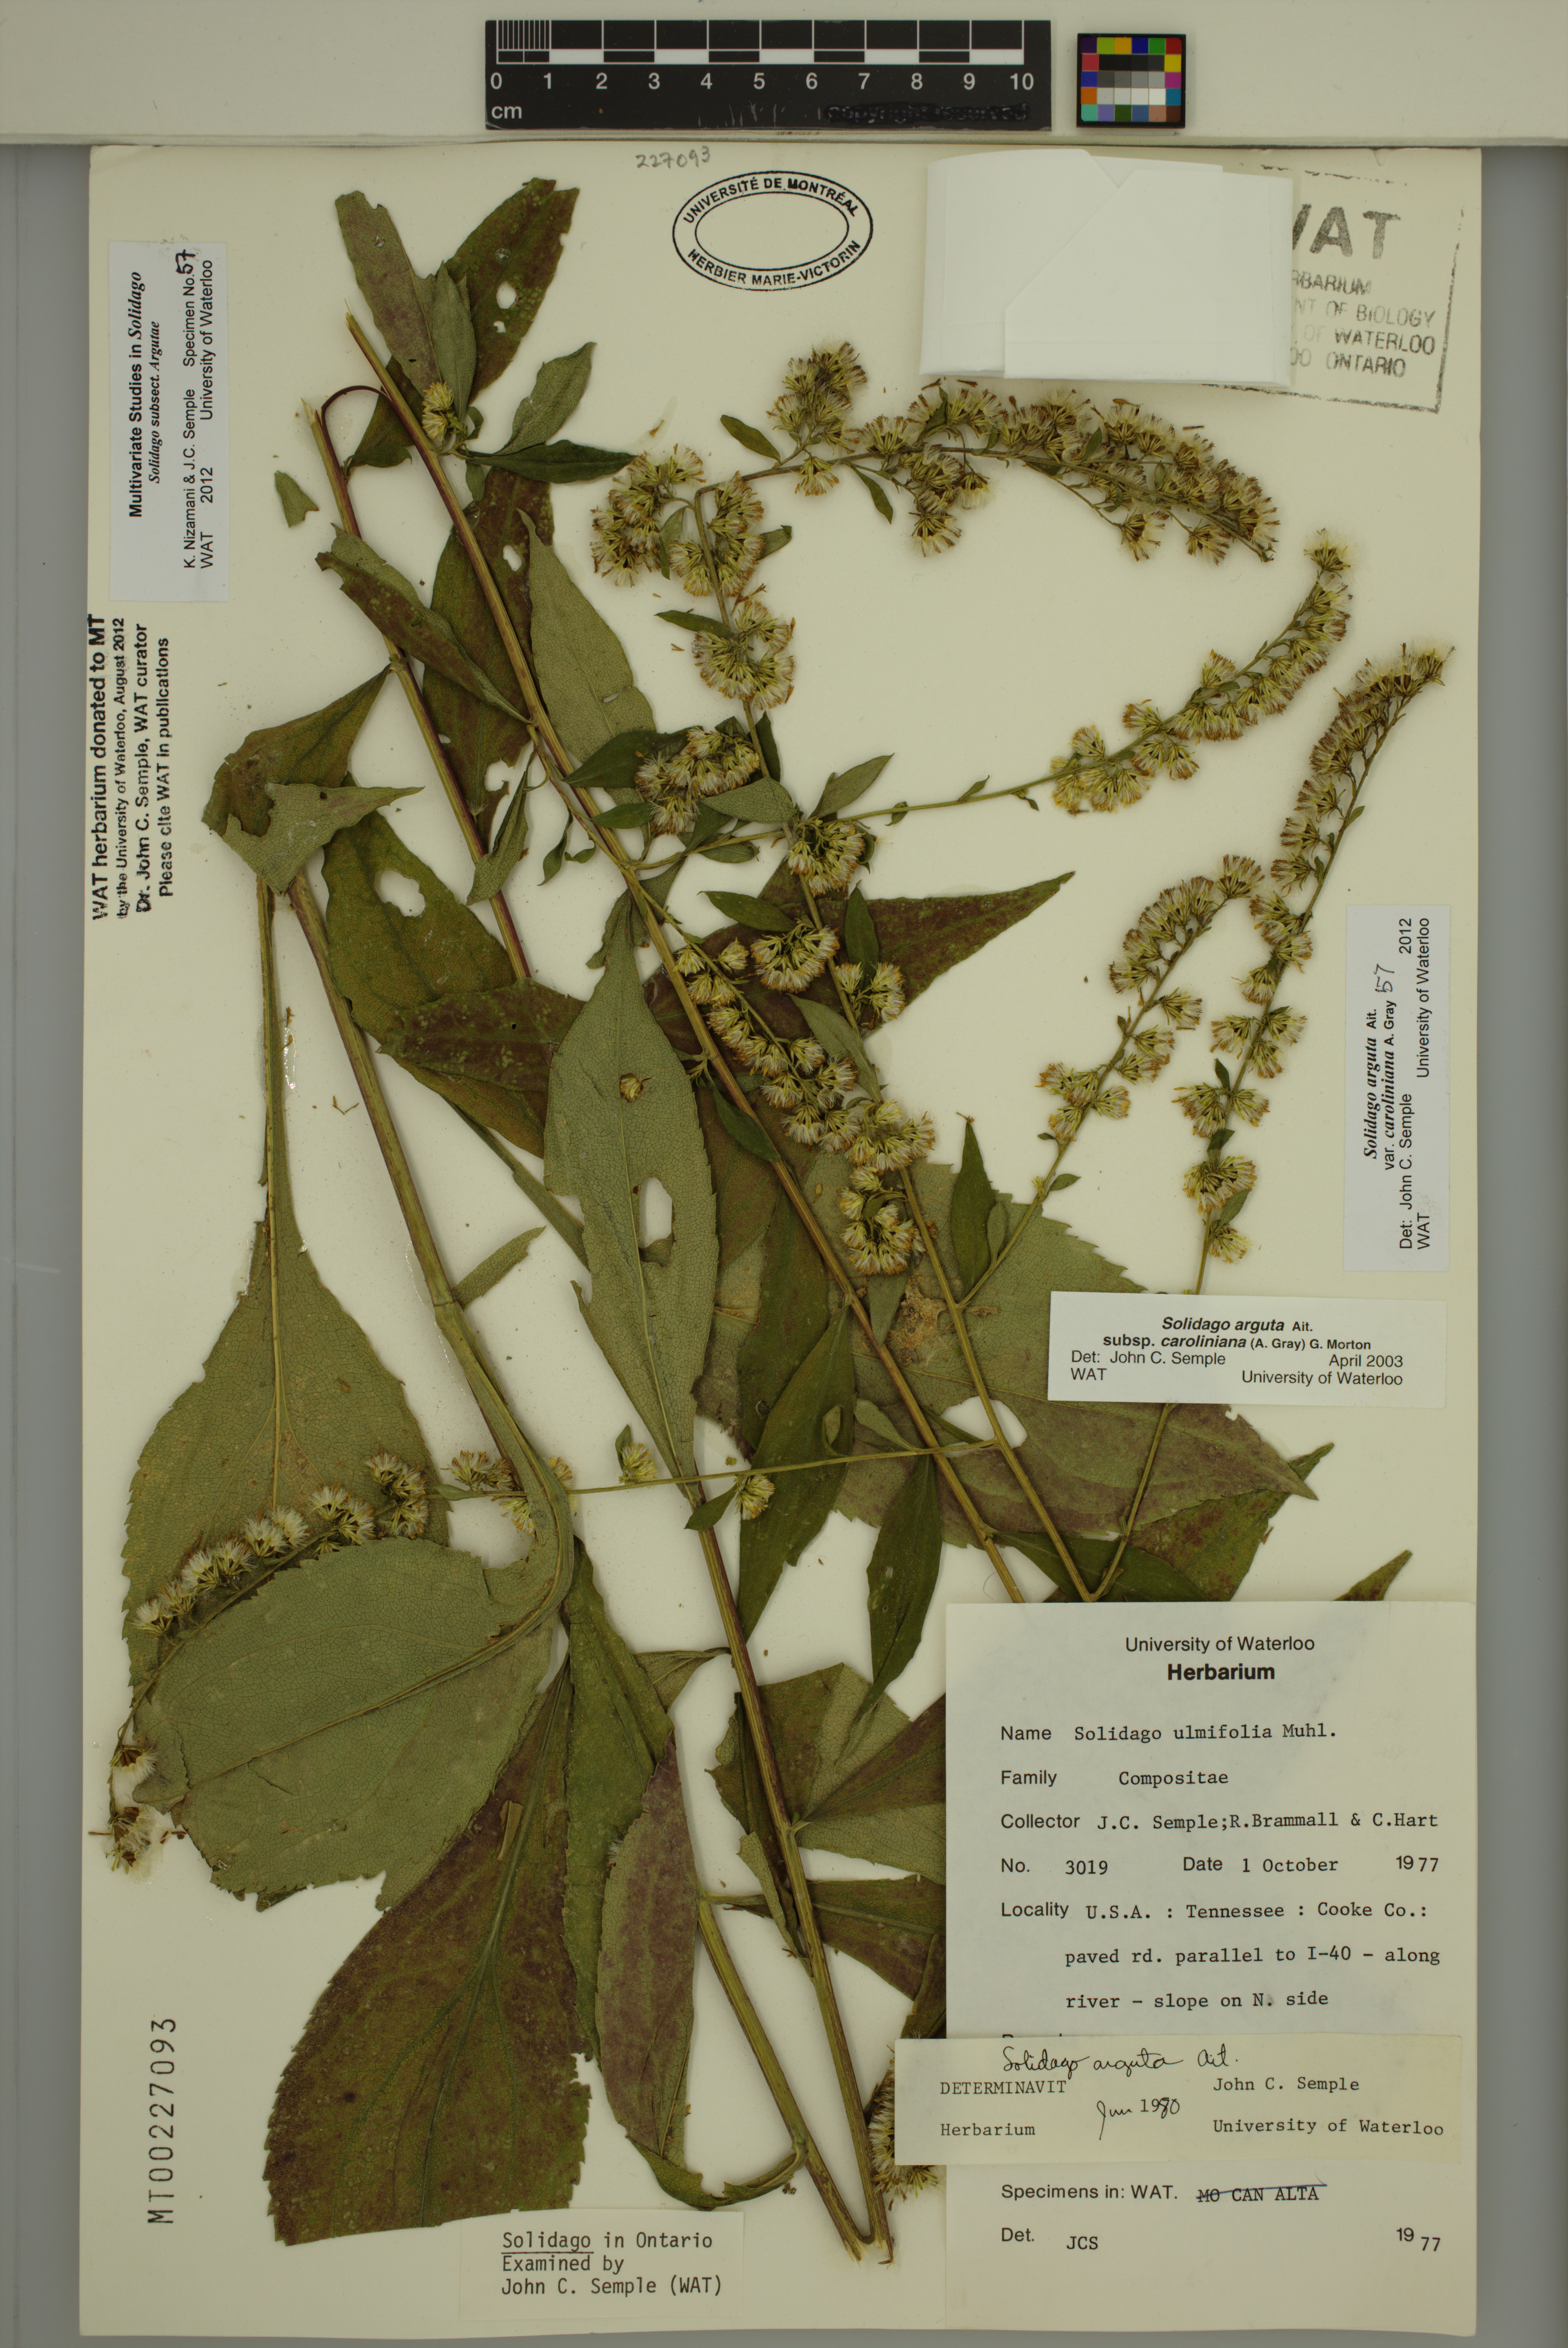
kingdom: Plantae
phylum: Tracheophyta
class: Magnoliopsida
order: Asterales
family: Asteraceae
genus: Solidago
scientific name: Solidago vaseyi
